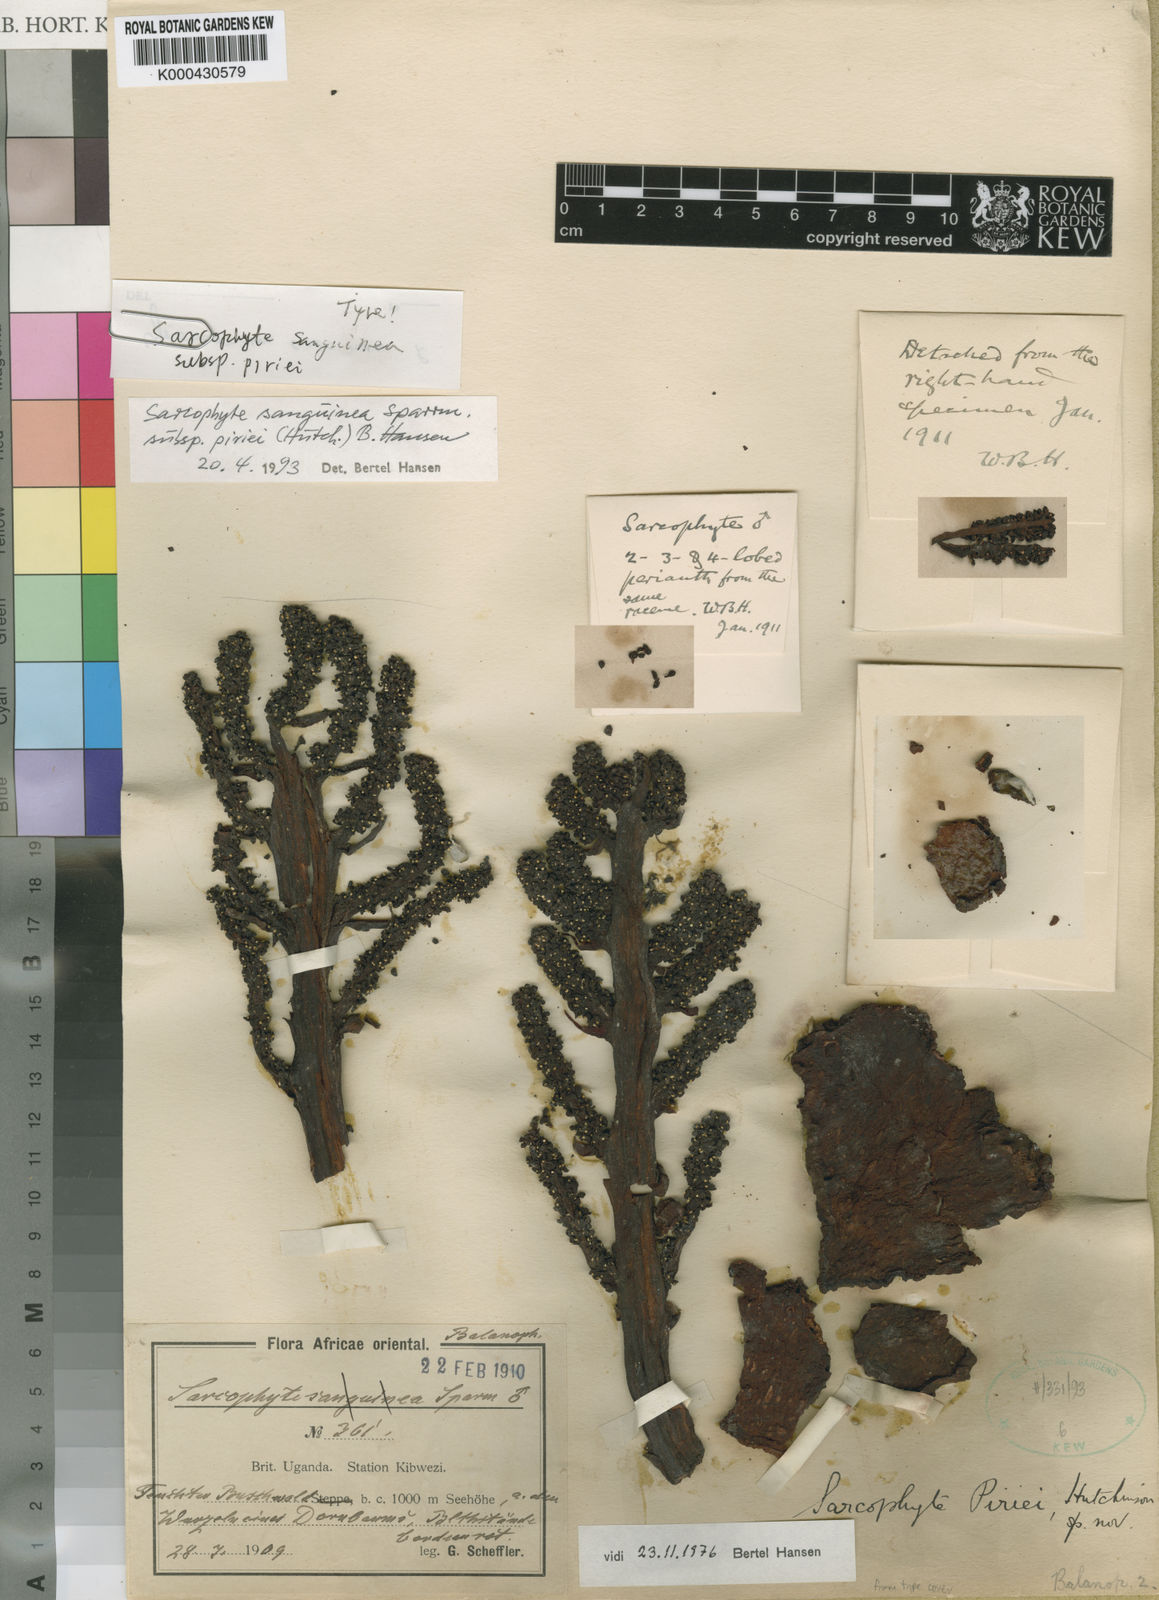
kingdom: Plantae
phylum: Tracheophyta
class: Magnoliopsida
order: Santalales
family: Balanophoraceae
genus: Sarcophyte
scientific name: Sarcophyte piriei
